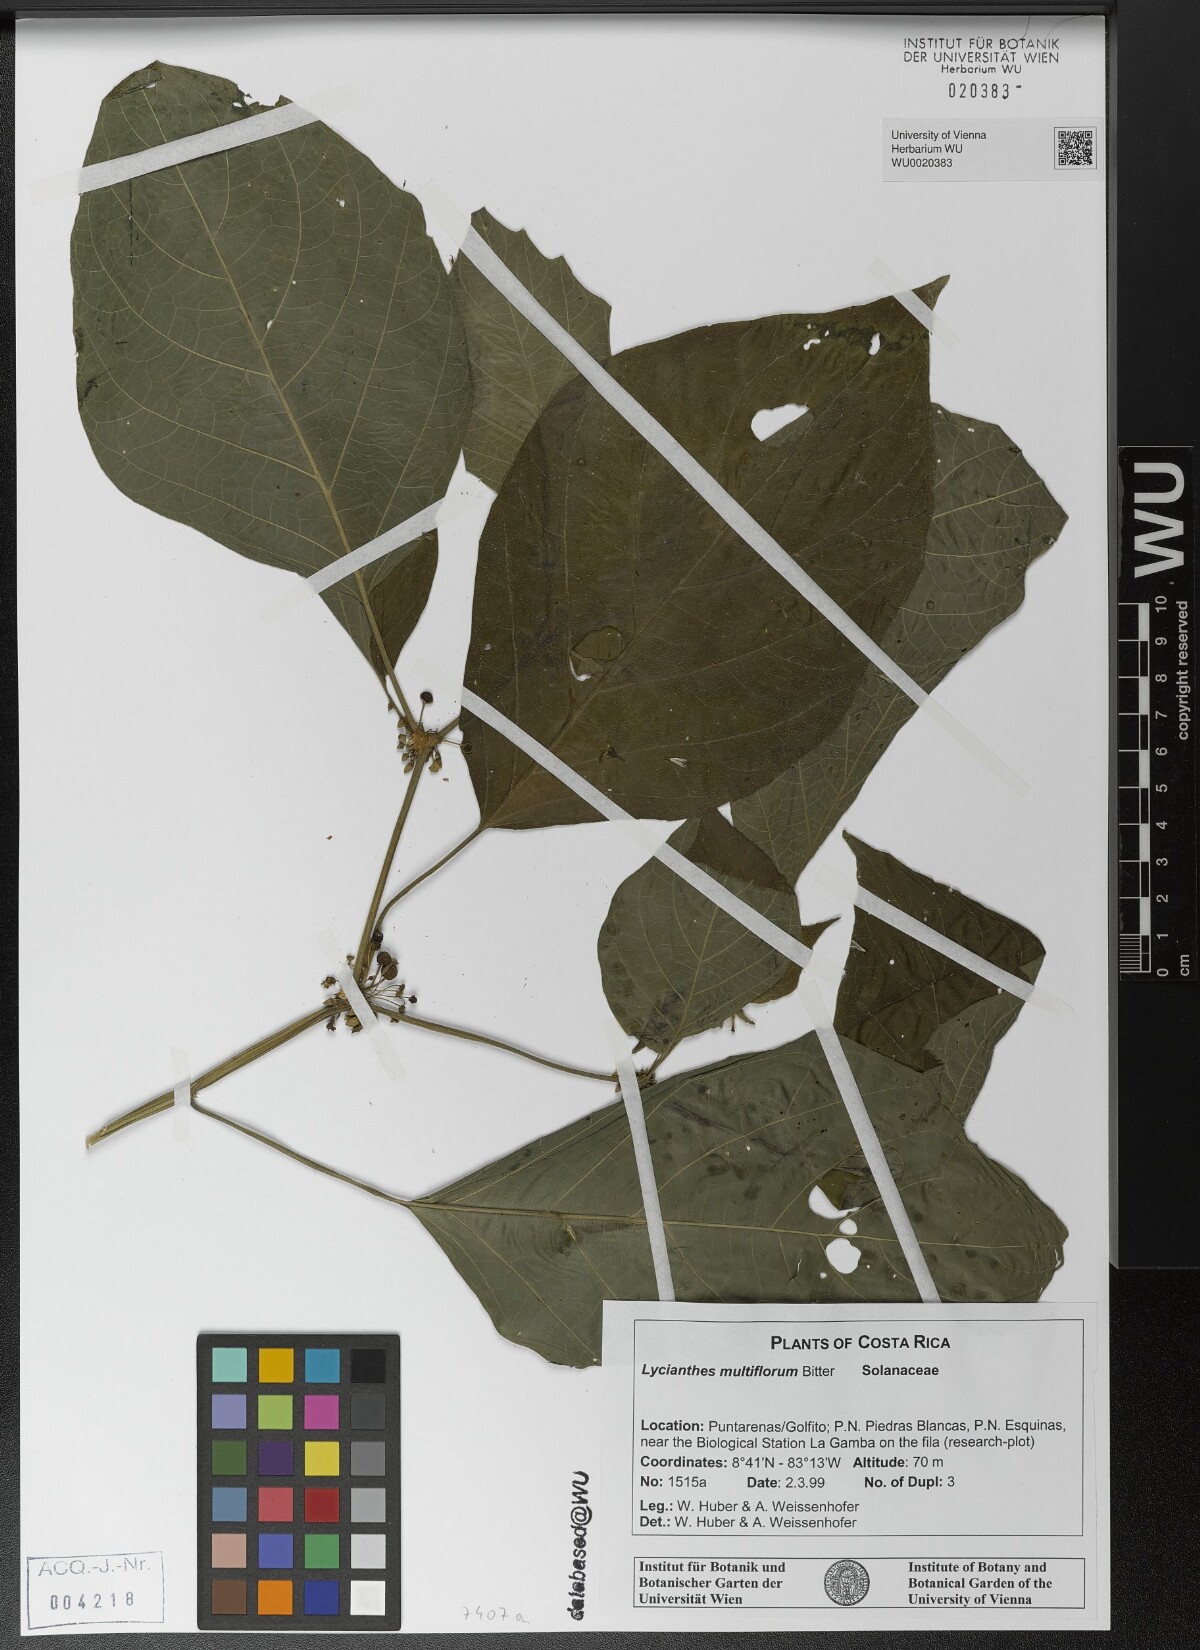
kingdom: Plantae
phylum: Tracheophyta
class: Magnoliopsida
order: Solanales
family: Solanaceae
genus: Lycianthes
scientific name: Lycianthes multiflora
